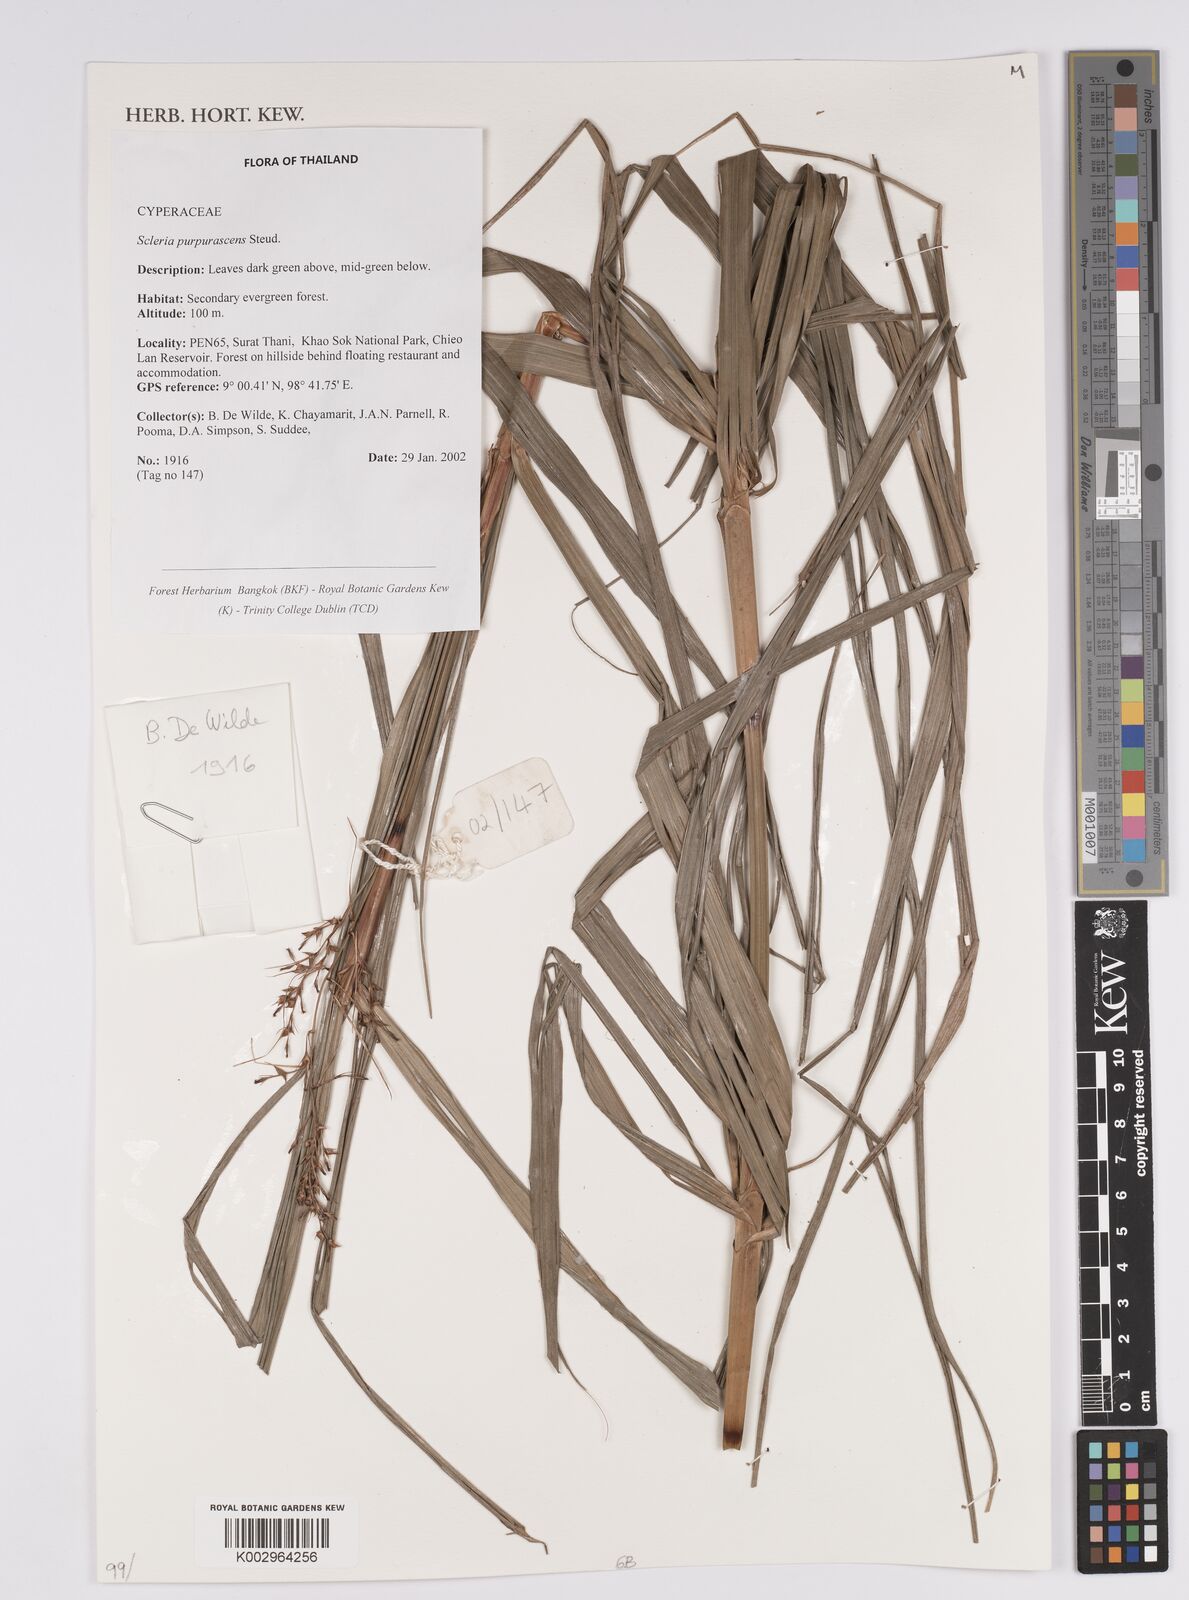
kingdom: Plantae
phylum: Tracheophyta
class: Liliopsida
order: Poales
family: Cyperaceae
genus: Scleria
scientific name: Scleria purpurascens
